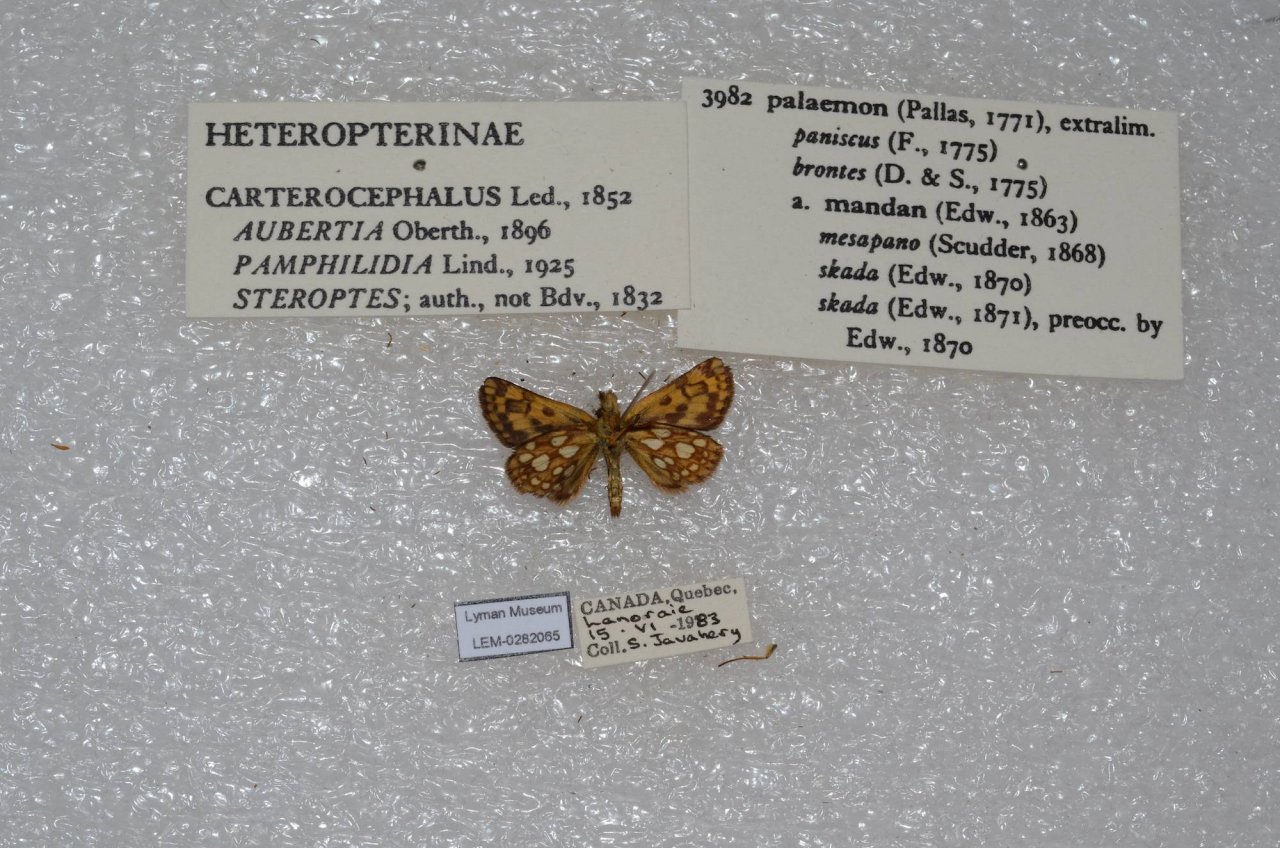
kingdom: Animalia
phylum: Arthropoda
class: Insecta
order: Lepidoptera
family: Hesperiidae
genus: Carterocephalus
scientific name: Carterocephalus palaemon
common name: Chequered Skipper
